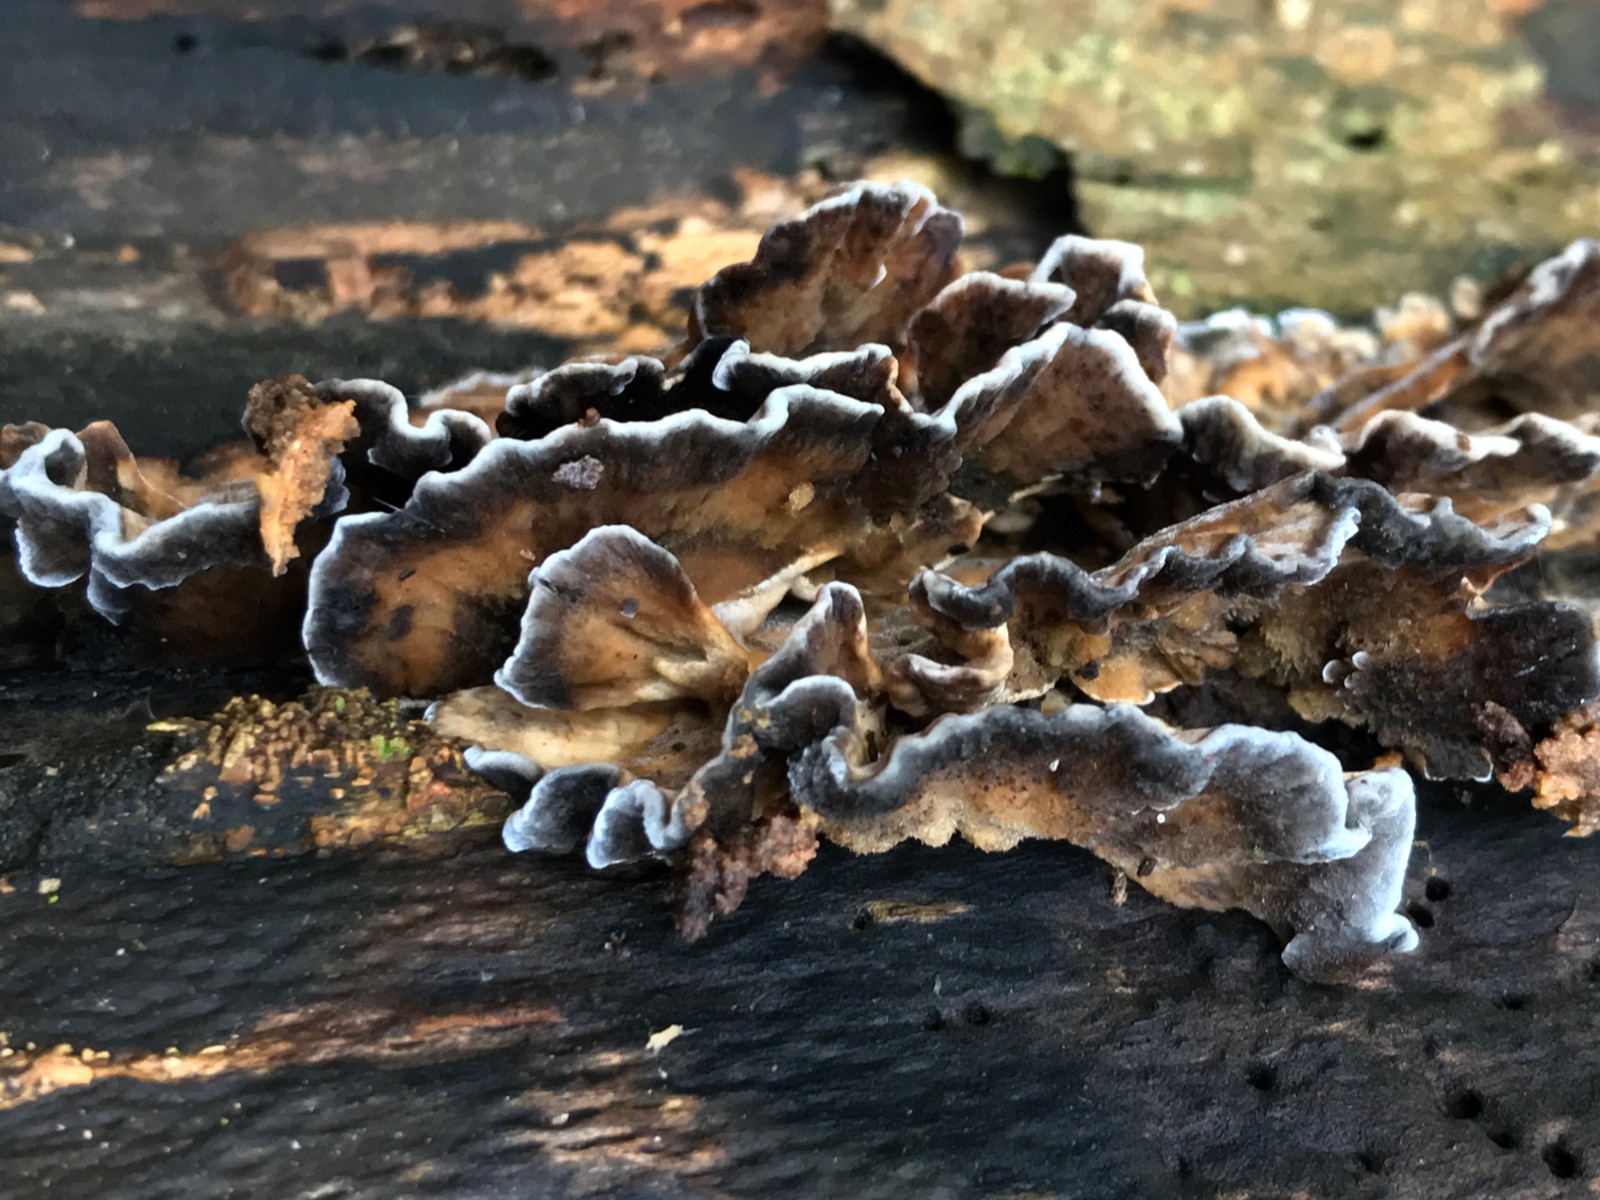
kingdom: Fungi
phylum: Basidiomycota
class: Agaricomycetes
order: Polyporales
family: Phanerochaetaceae
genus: Bjerkandera
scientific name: Bjerkandera adusta
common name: sveden sodporesvamp
